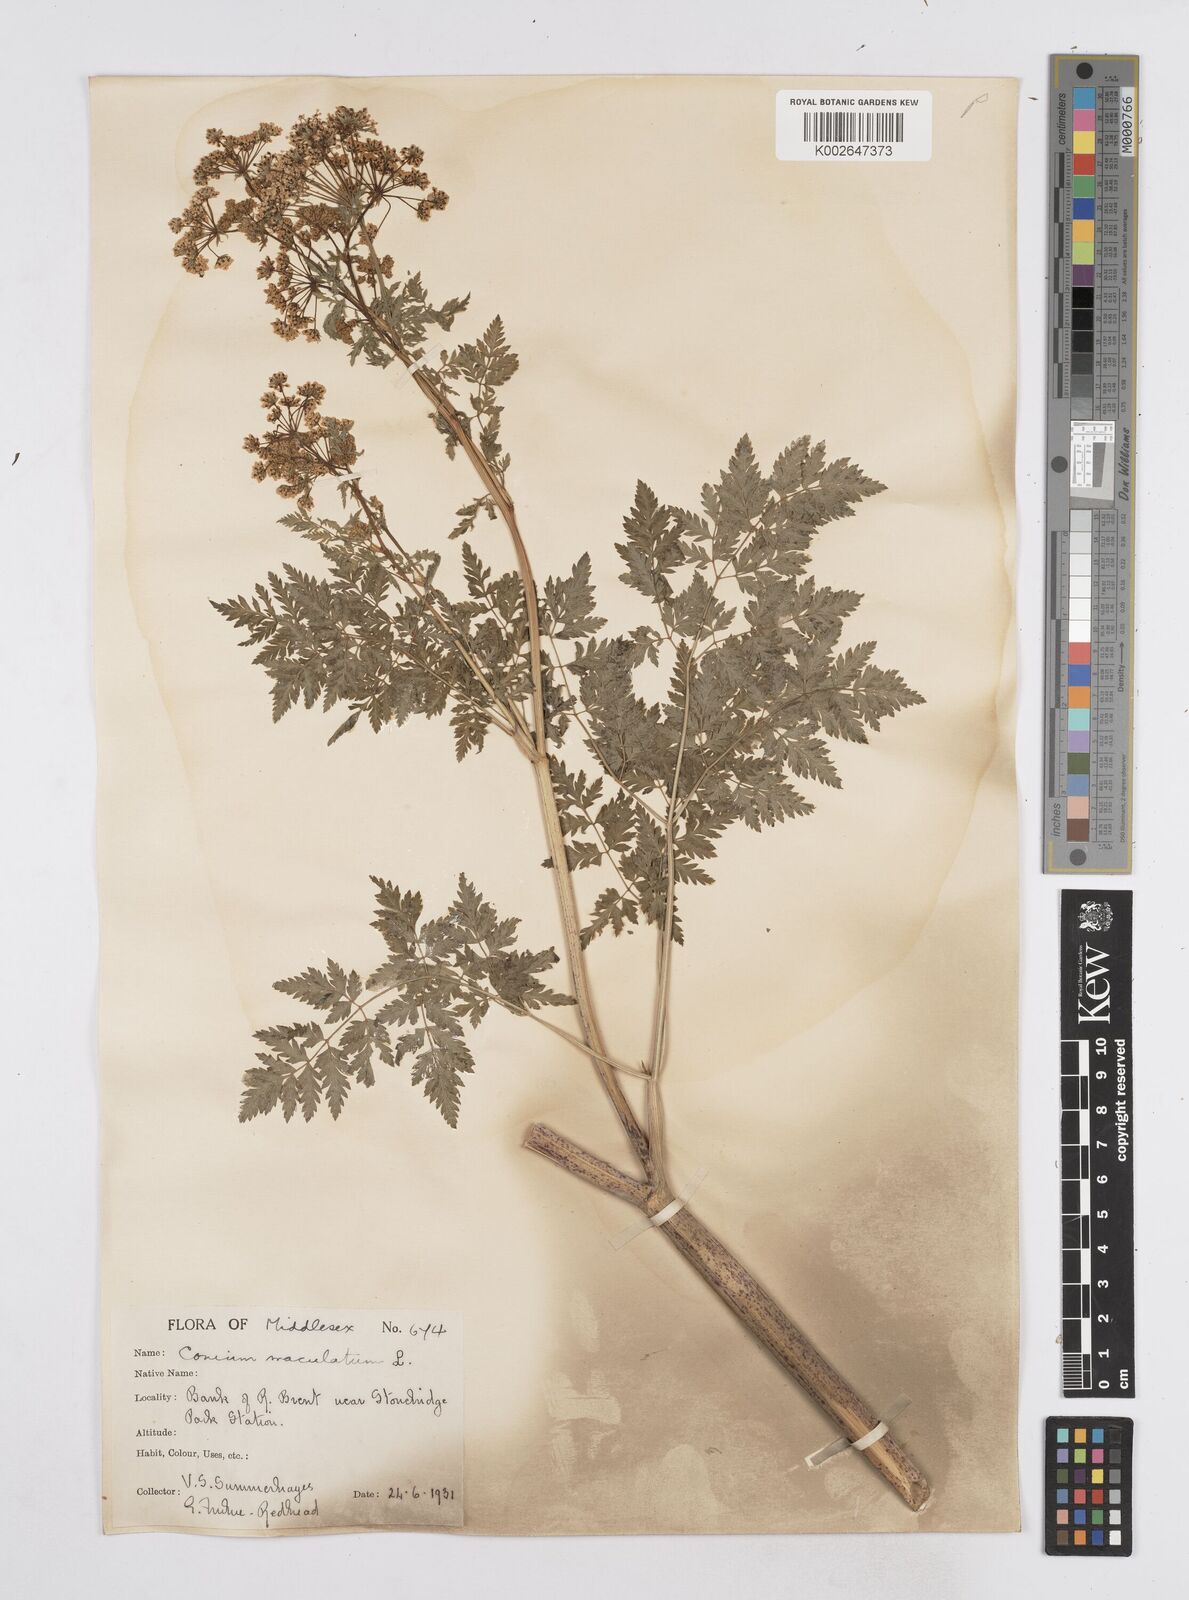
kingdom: Plantae
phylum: Tracheophyta
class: Magnoliopsida
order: Apiales
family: Apiaceae
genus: Conium
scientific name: Conium maculatum
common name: Hemlock
